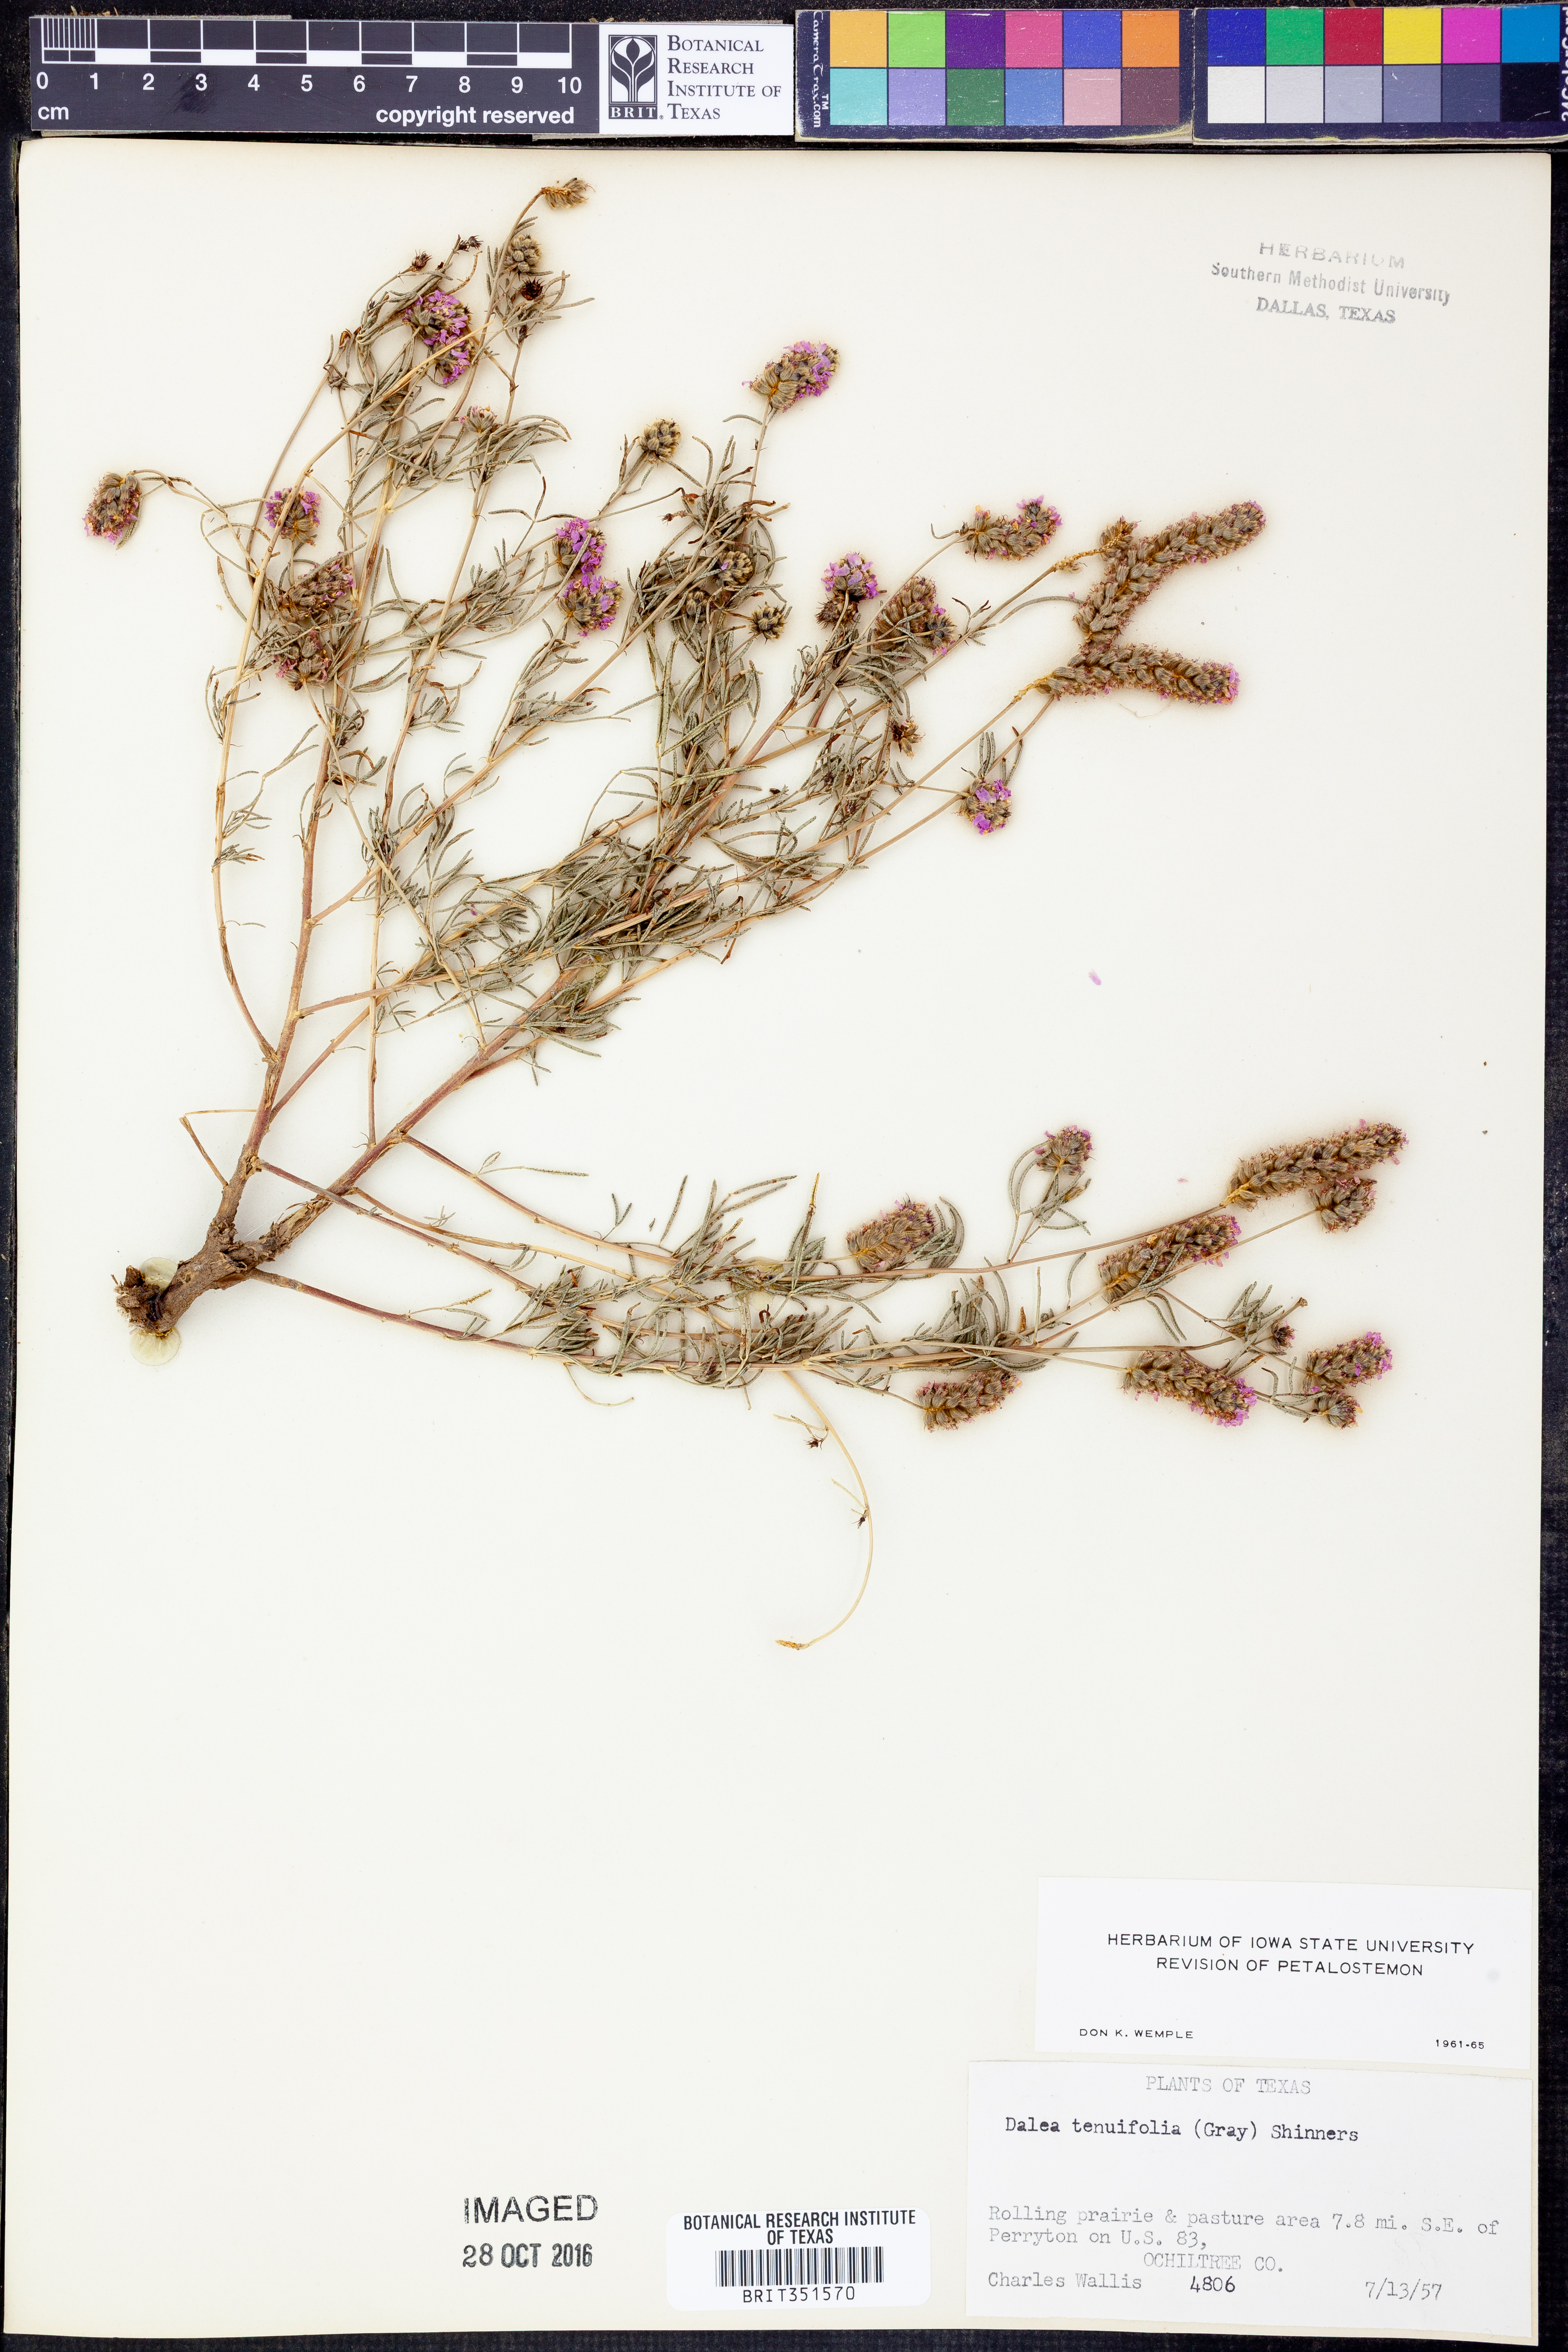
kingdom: Plantae
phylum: Tracheophyta
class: Magnoliopsida
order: Fabales
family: Fabaceae
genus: Dalea
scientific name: Dalea tenuifolia
